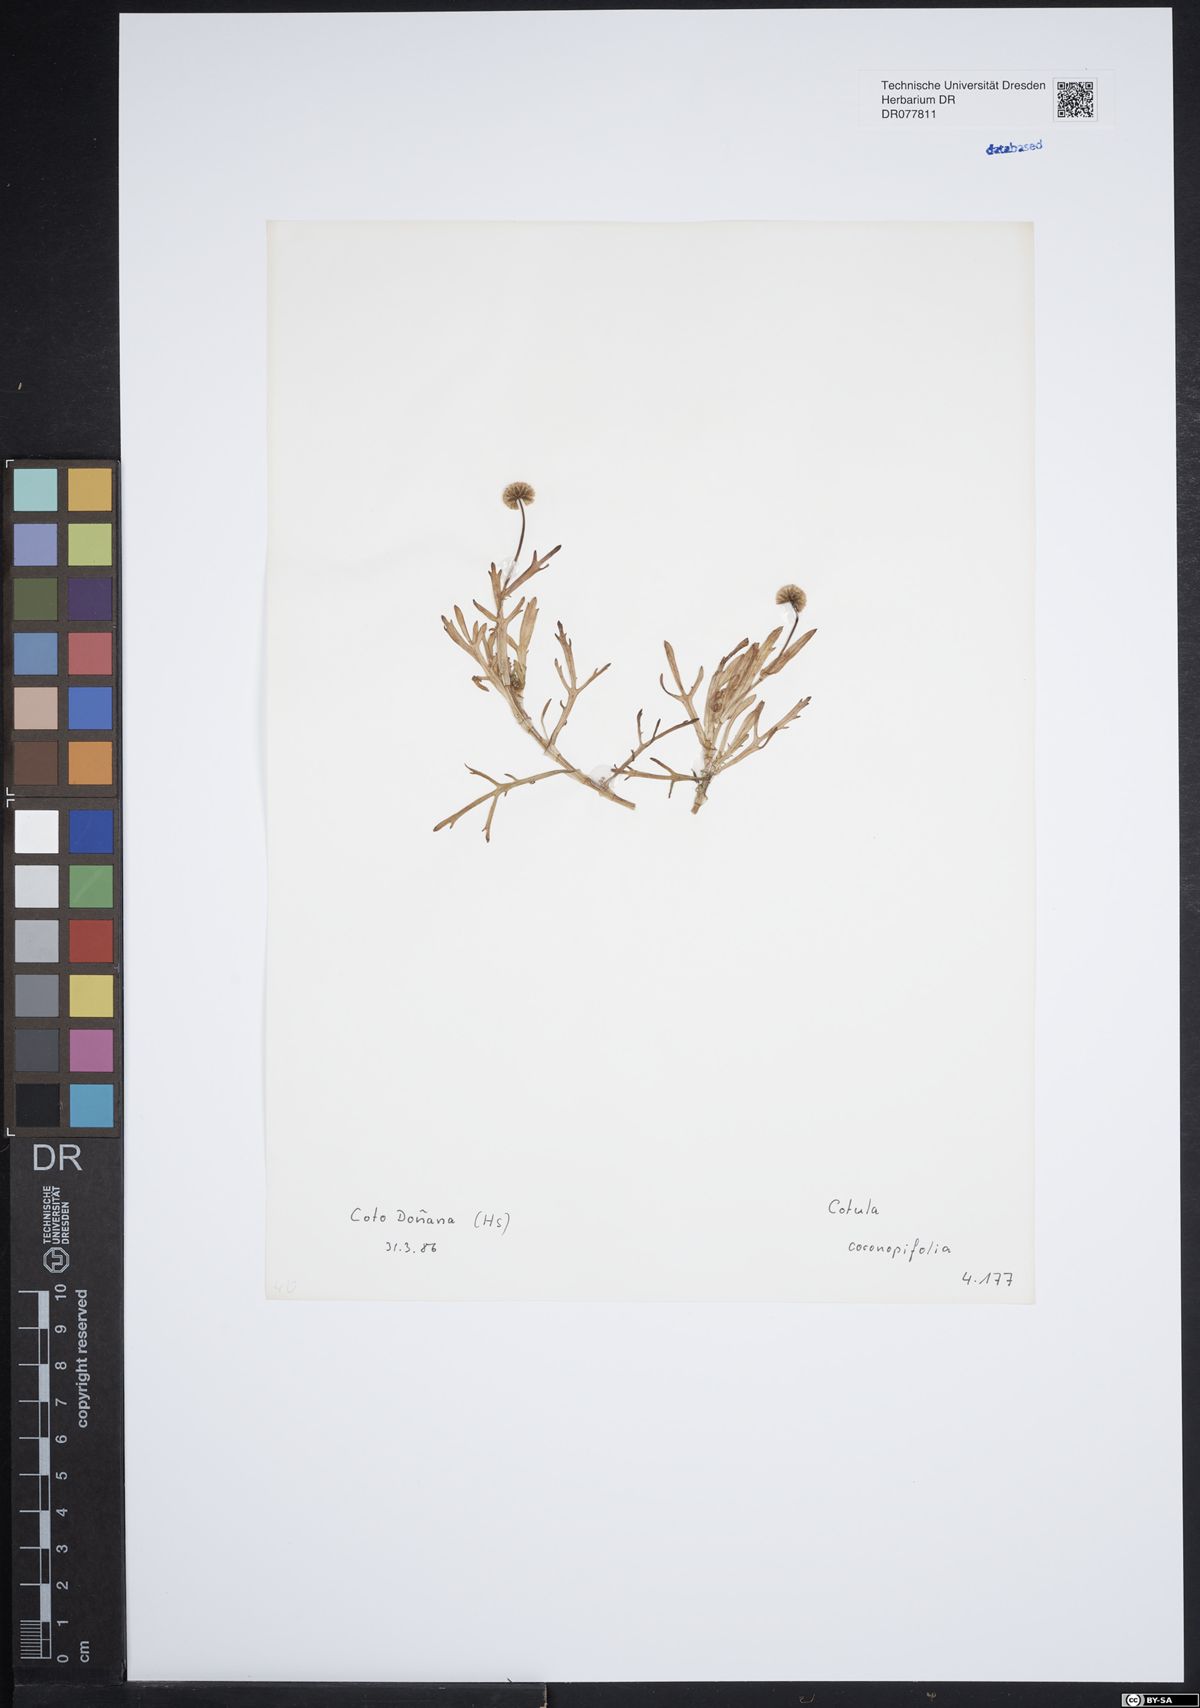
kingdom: Plantae
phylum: Tracheophyta
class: Magnoliopsida
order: Asterales
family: Asteraceae
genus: Cotula
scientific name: Cotula coronopifolia
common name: Buttonweed
